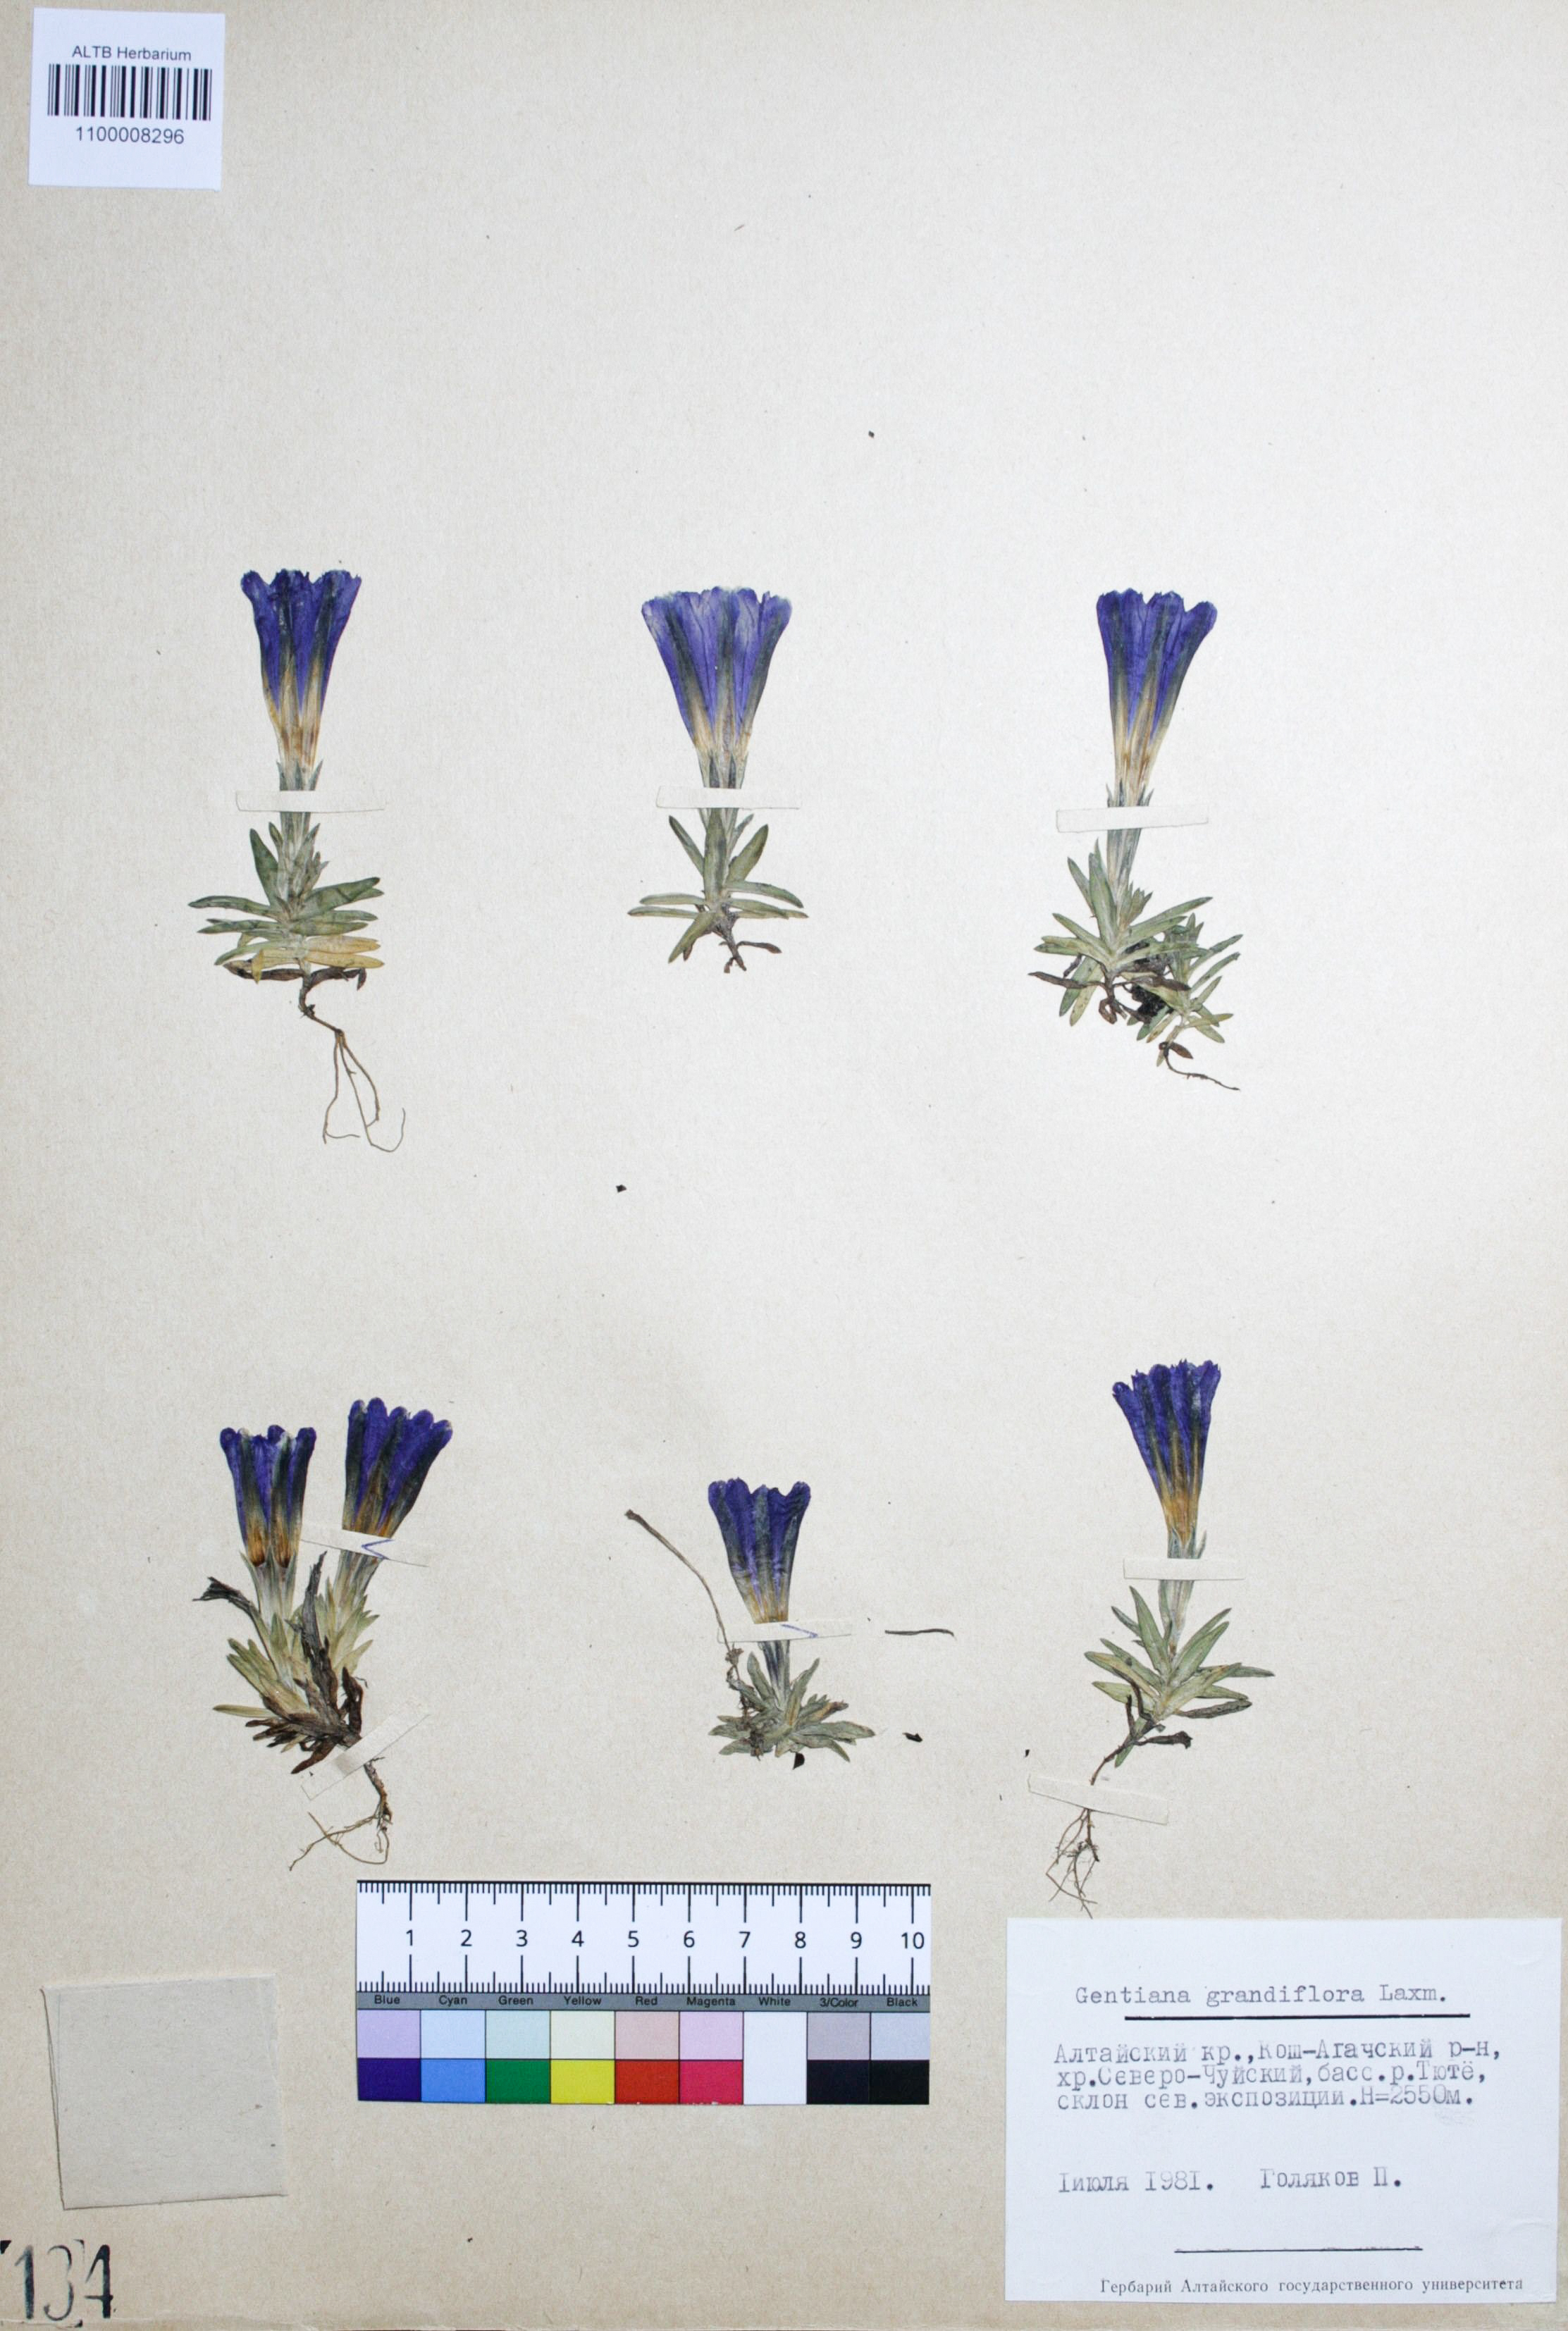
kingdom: Plantae
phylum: Tracheophyta
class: Magnoliopsida
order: Gentianales
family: Gentianaceae
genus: Gentiana
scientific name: Gentiana grandiflora
